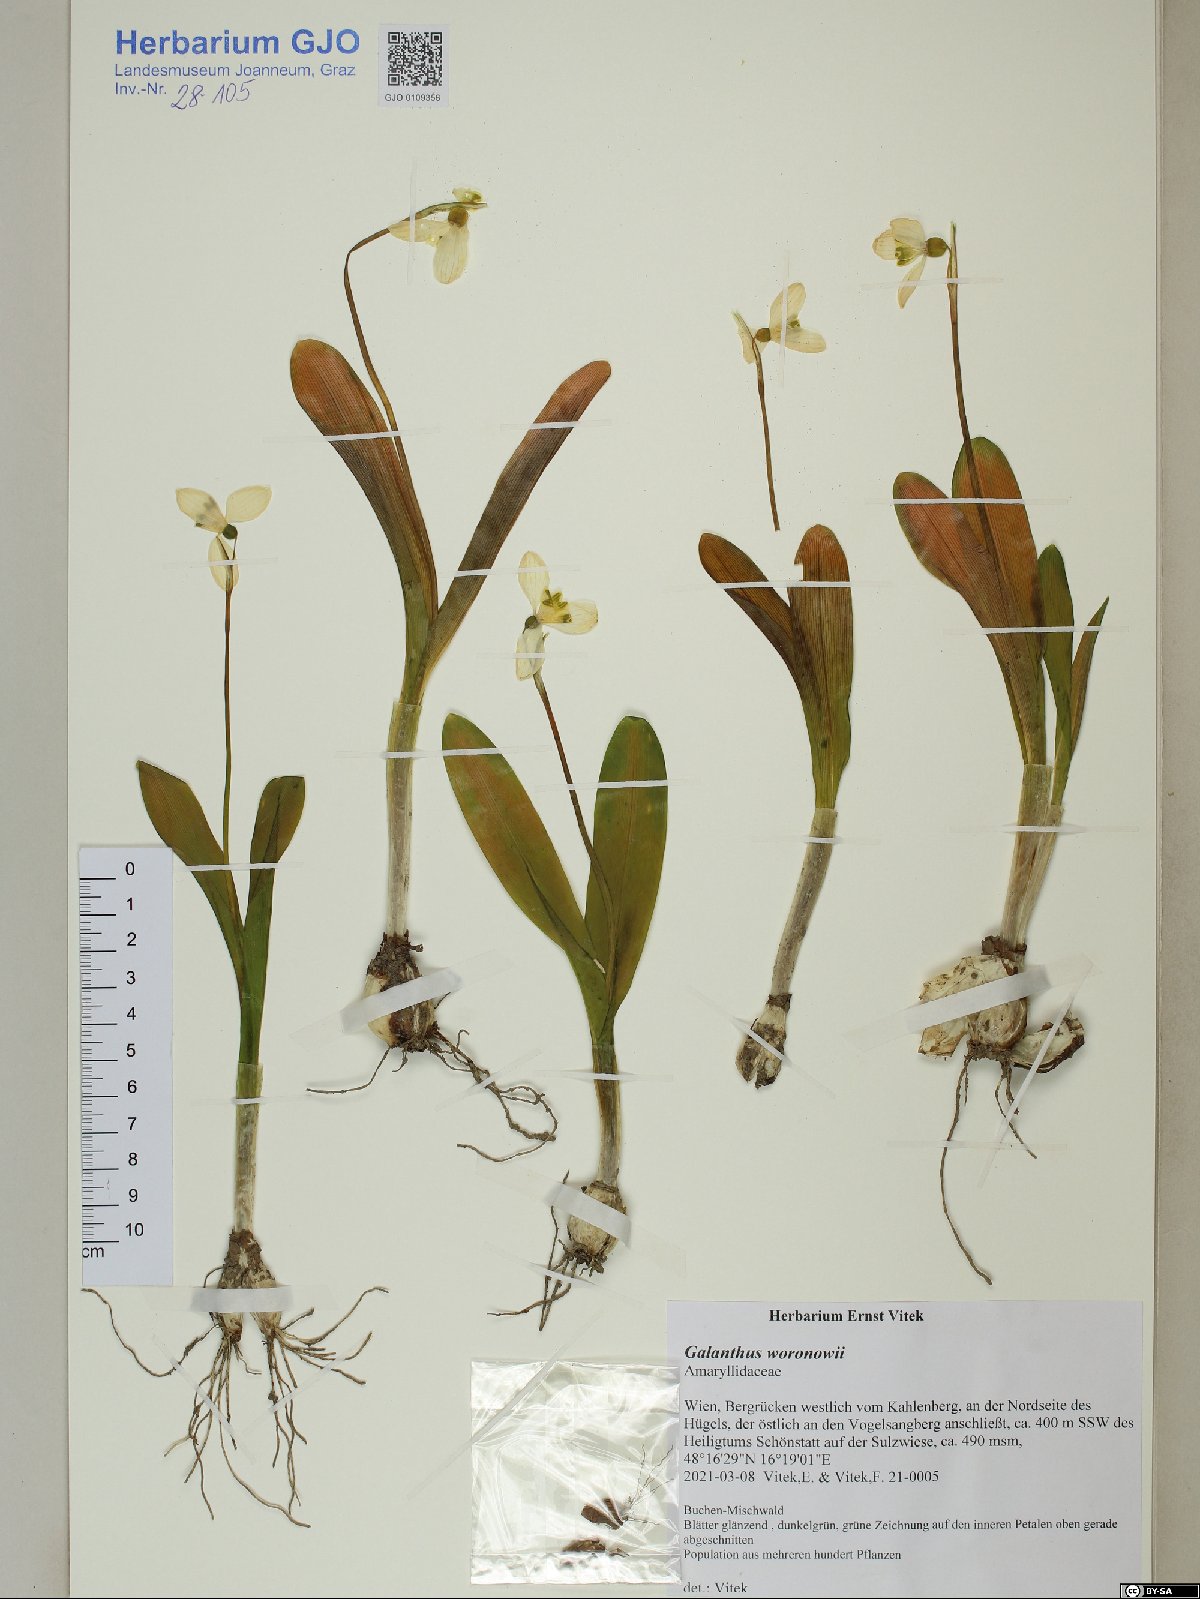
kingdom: Plantae
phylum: Tracheophyta
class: Liliopsida
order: Asparagales
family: Amaryllidaceae
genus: Galanthus
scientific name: Galanthus woronowii
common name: Green snowdrop
